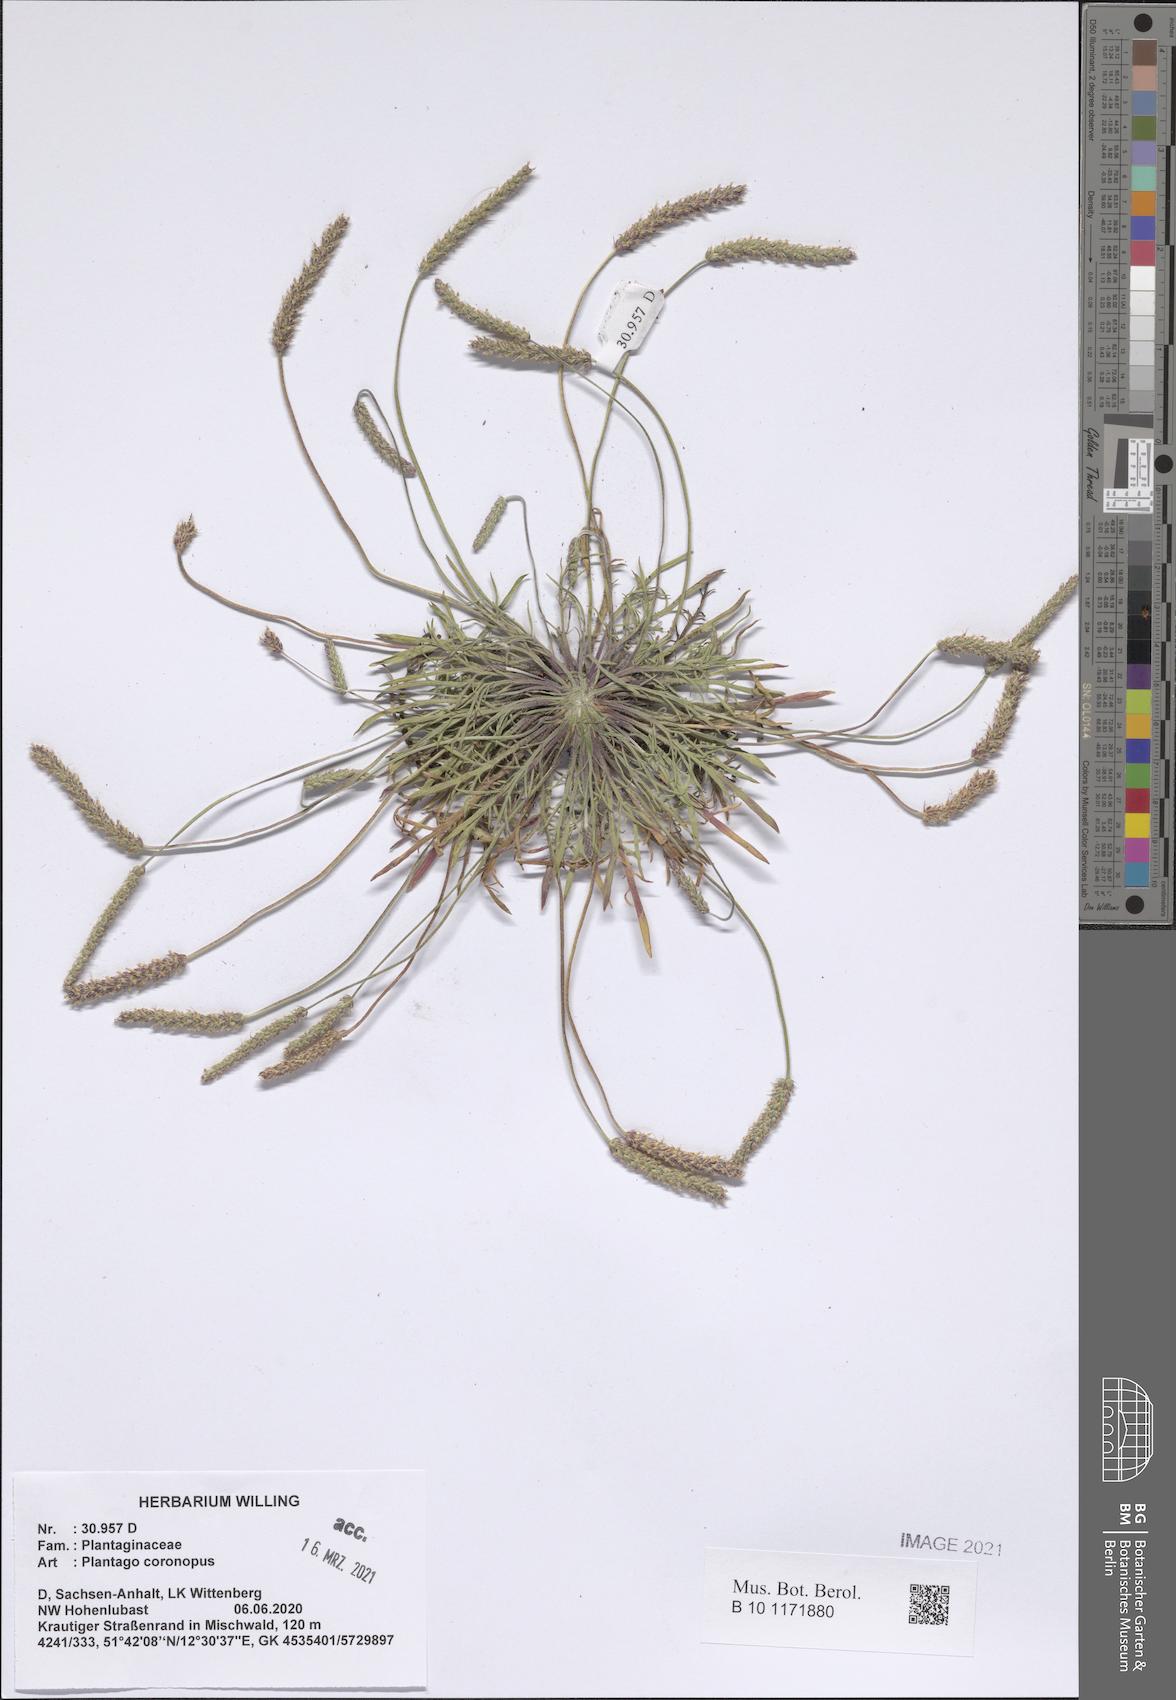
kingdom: Plantae
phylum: Tracheophyta
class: Magnoliopsida
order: Lamiales
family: Plantaginaceae
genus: Plantago
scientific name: Plantago coronopus
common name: Buck's-horn plantain
